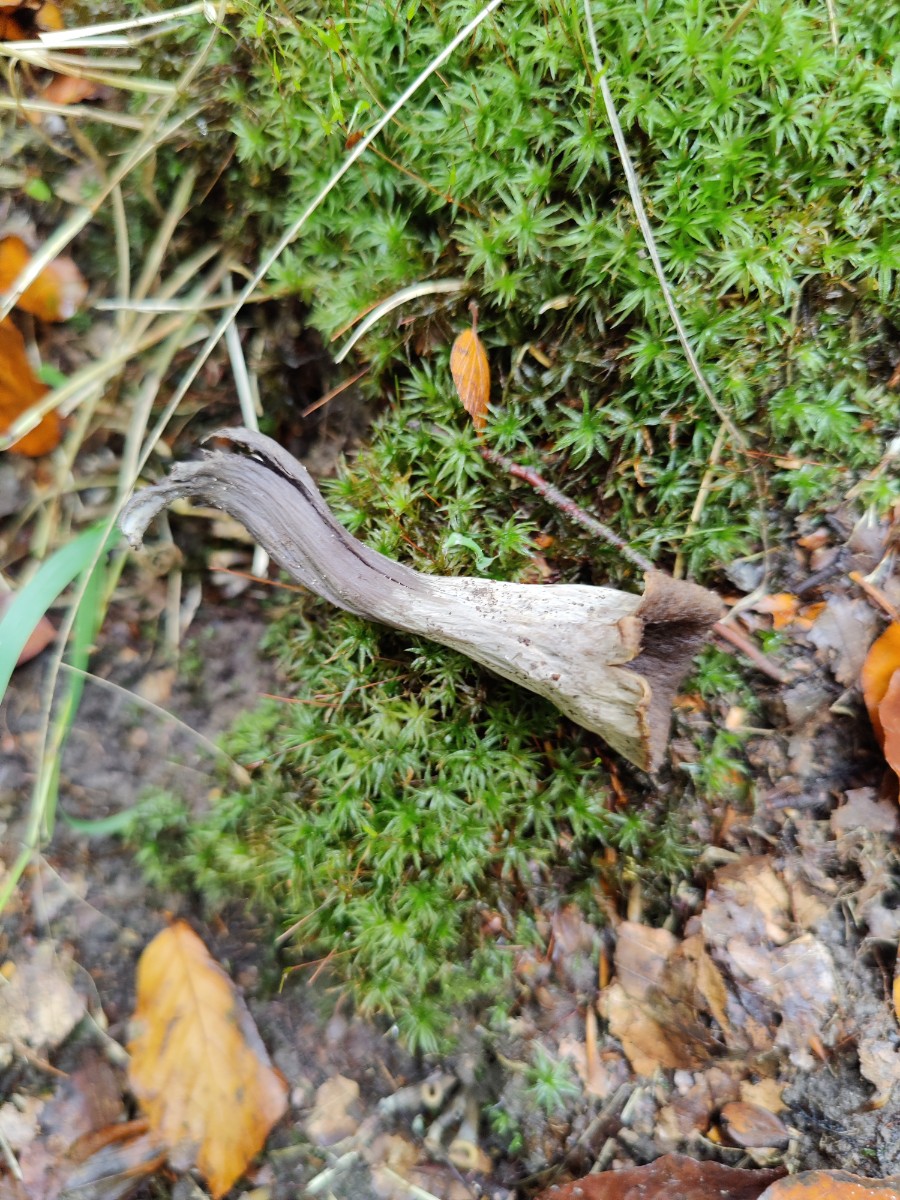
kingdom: Fungi
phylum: Basidiomycota
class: Agaricomycetes
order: Cantharellales
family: Hydnaceae
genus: Craterellus
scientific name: Craterellus cornucopioides
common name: trompetsvamp
